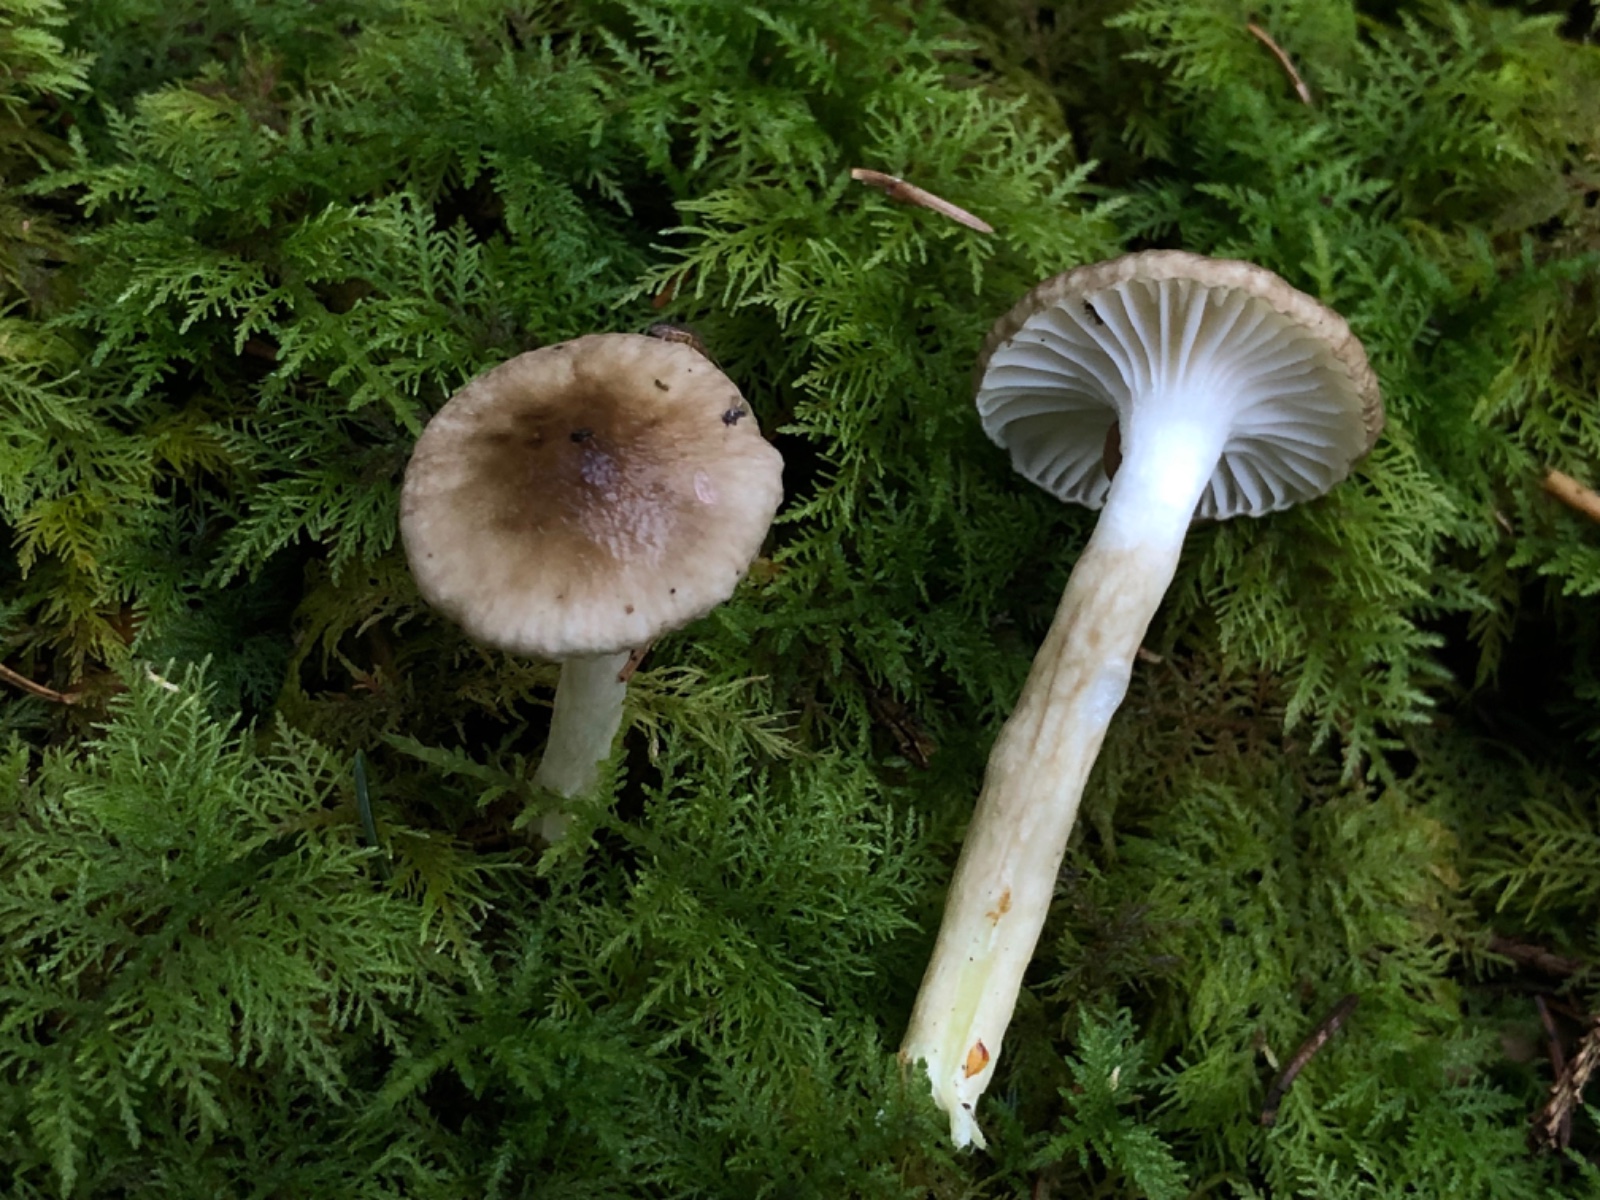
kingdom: Fungi
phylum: Basidiomycota
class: Agaricomycetes
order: Agaricales
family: Hygrophoraceae
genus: Hygrophorus
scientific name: Hygrophorus olivaceoalbus
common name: hvidbrun sneglehat
